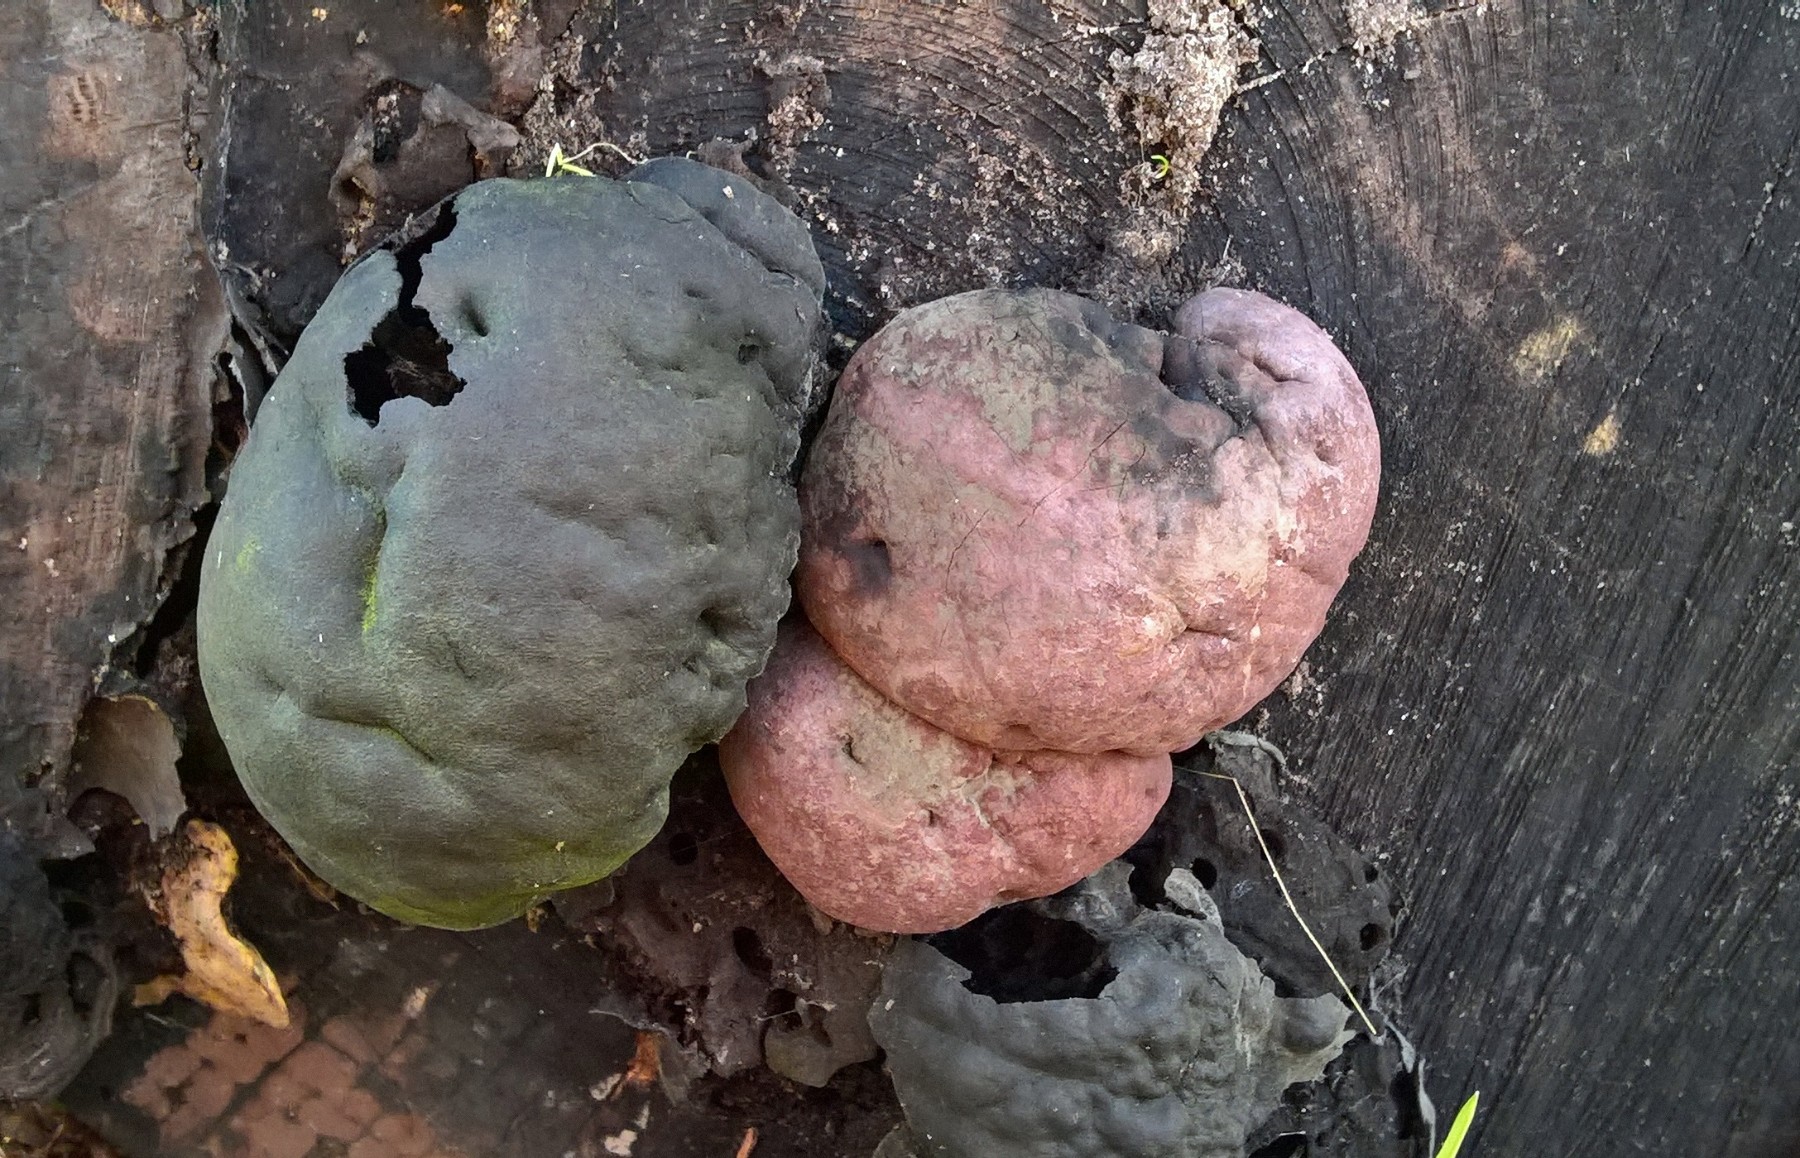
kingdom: Fungi
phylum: Ascomycota
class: Sordariomycetes
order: Xylariales
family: Hypoxylaceae
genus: Daldinia
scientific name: Daldinia concentrica
